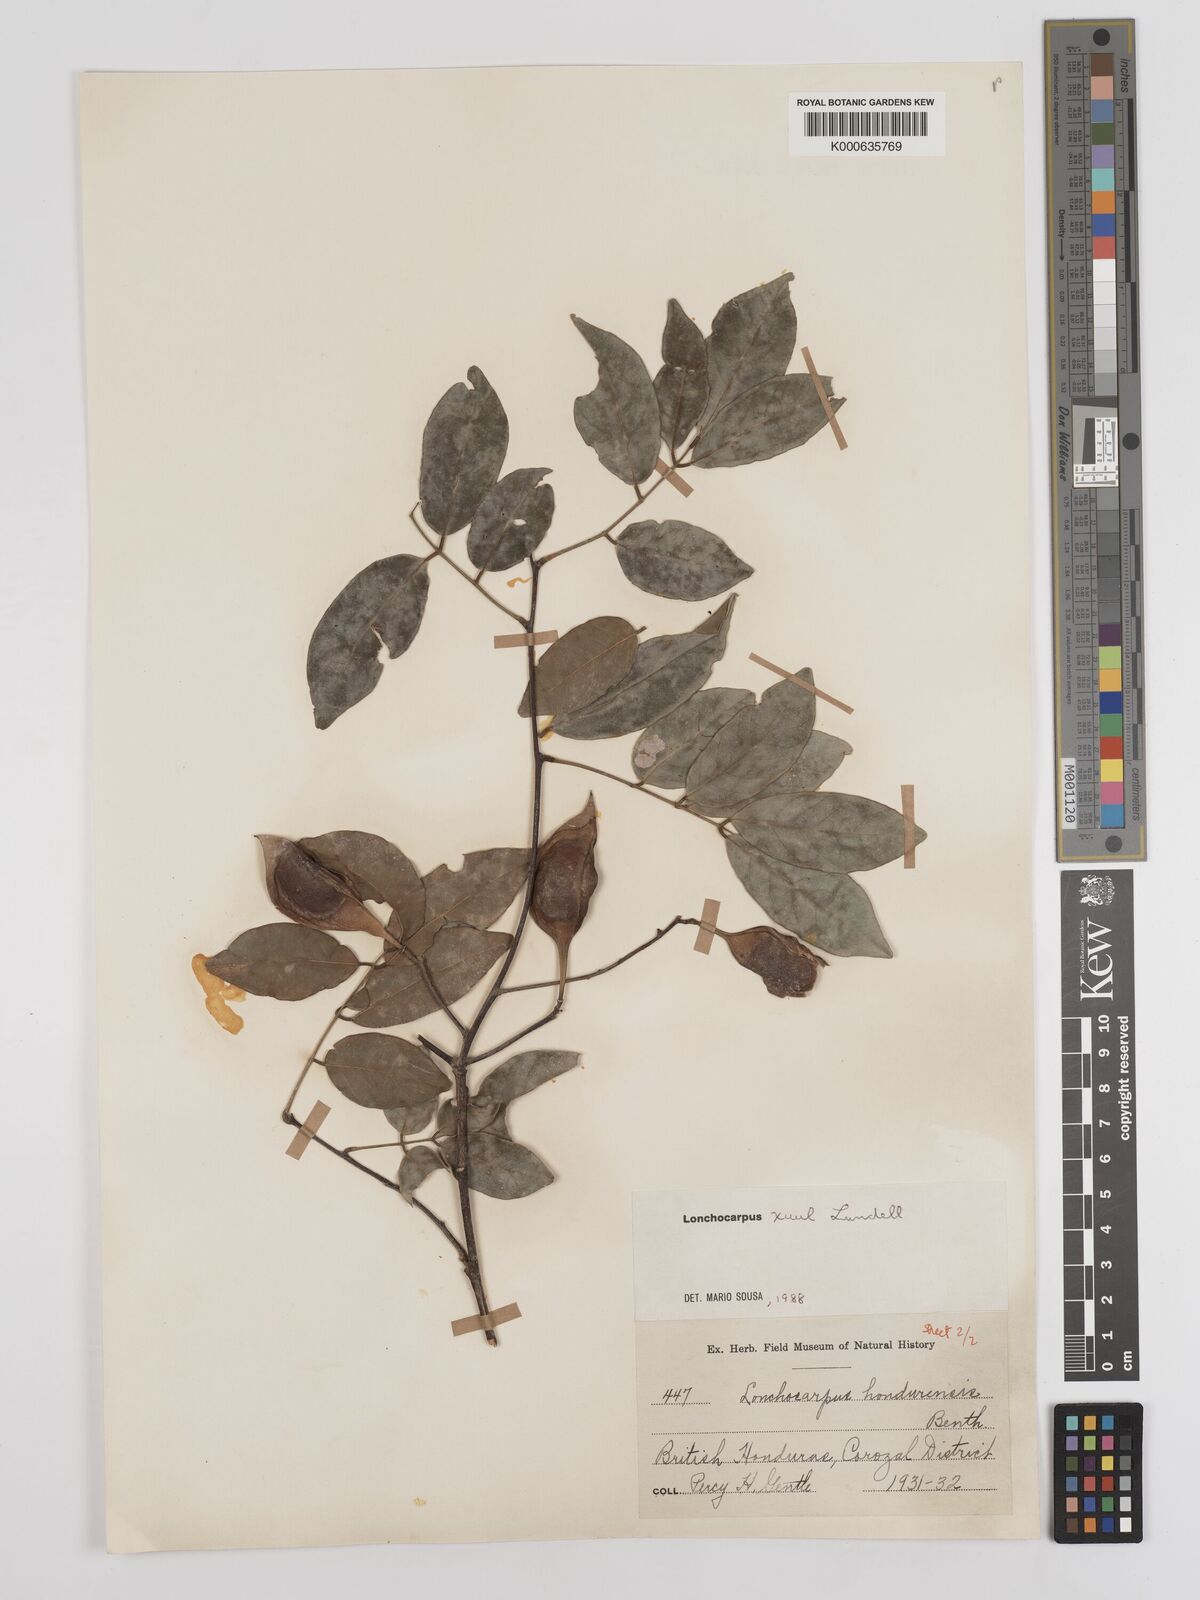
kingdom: Plantae
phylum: Tracheophyta
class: Magnoliopsida
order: Fabales
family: Fabaceae
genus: Lonchocarpus
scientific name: Lonchocarpus guatemalensis
